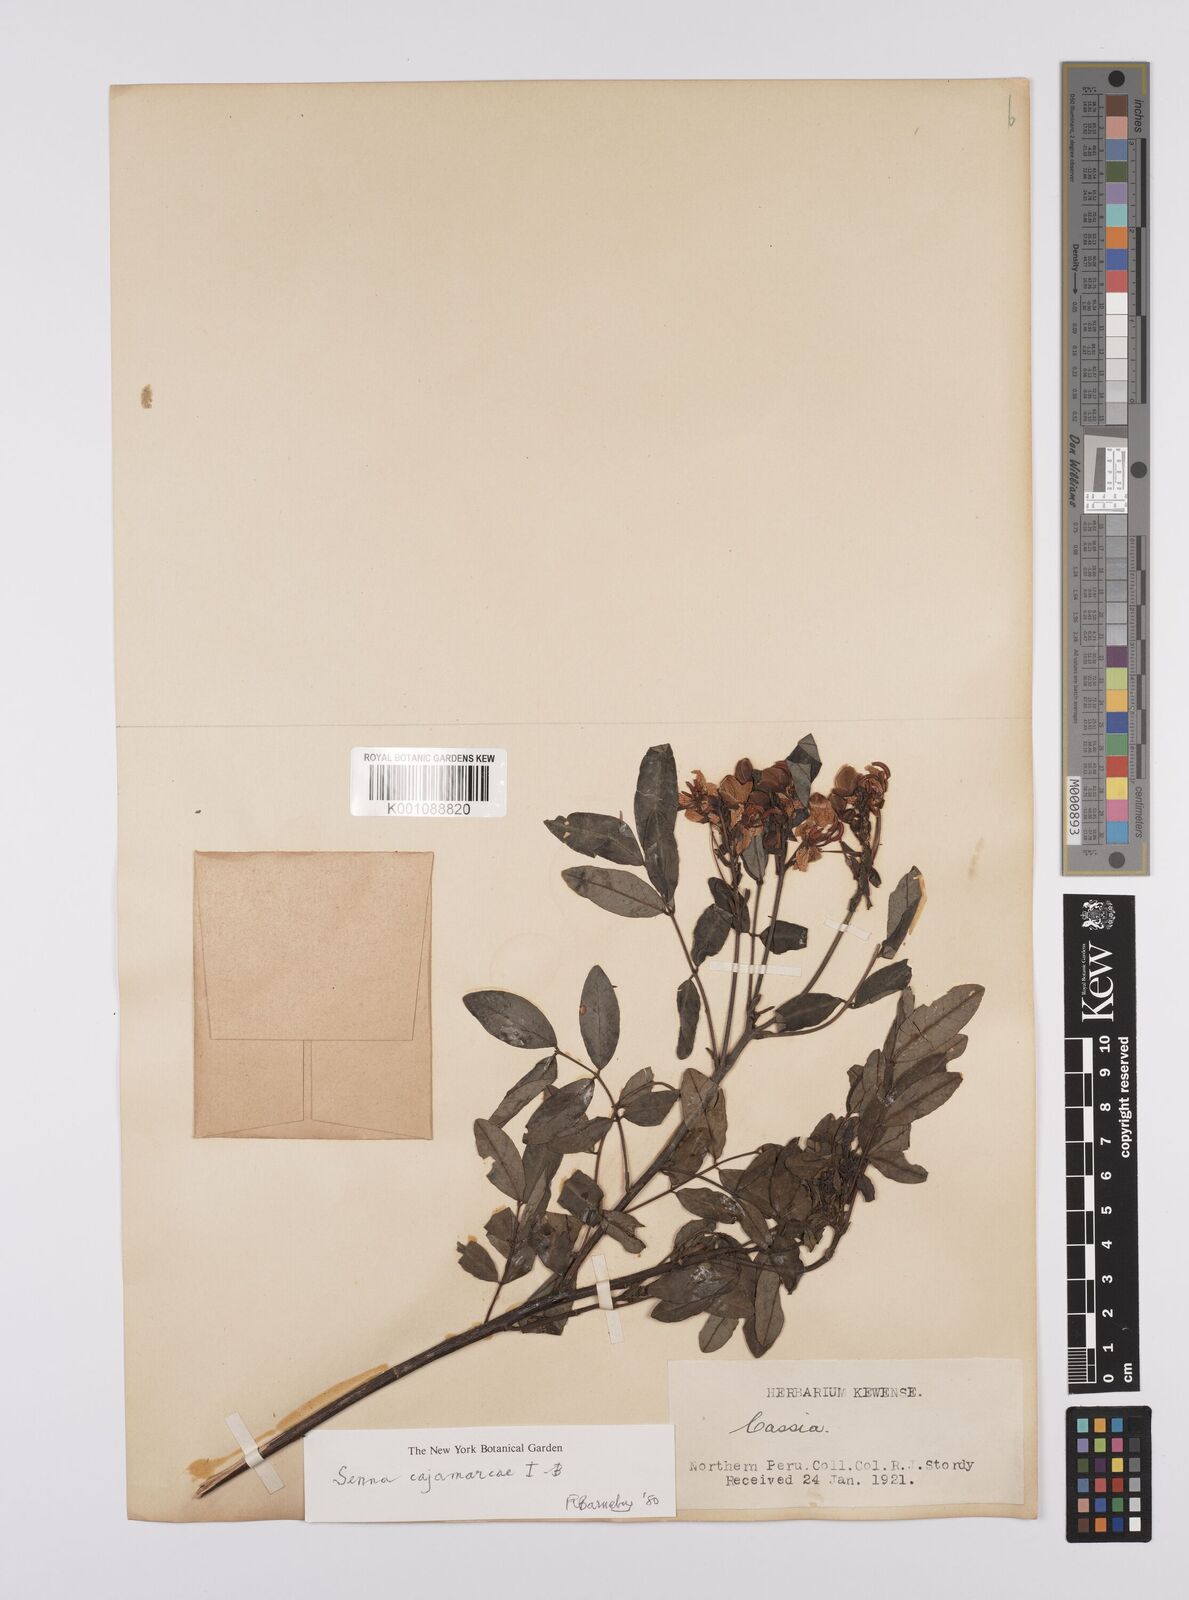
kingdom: Plantae
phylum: Tracheophyta
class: Magnoliopsida
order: Fabales
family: Fabaceae
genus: Senna
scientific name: Senna cajamarcae
